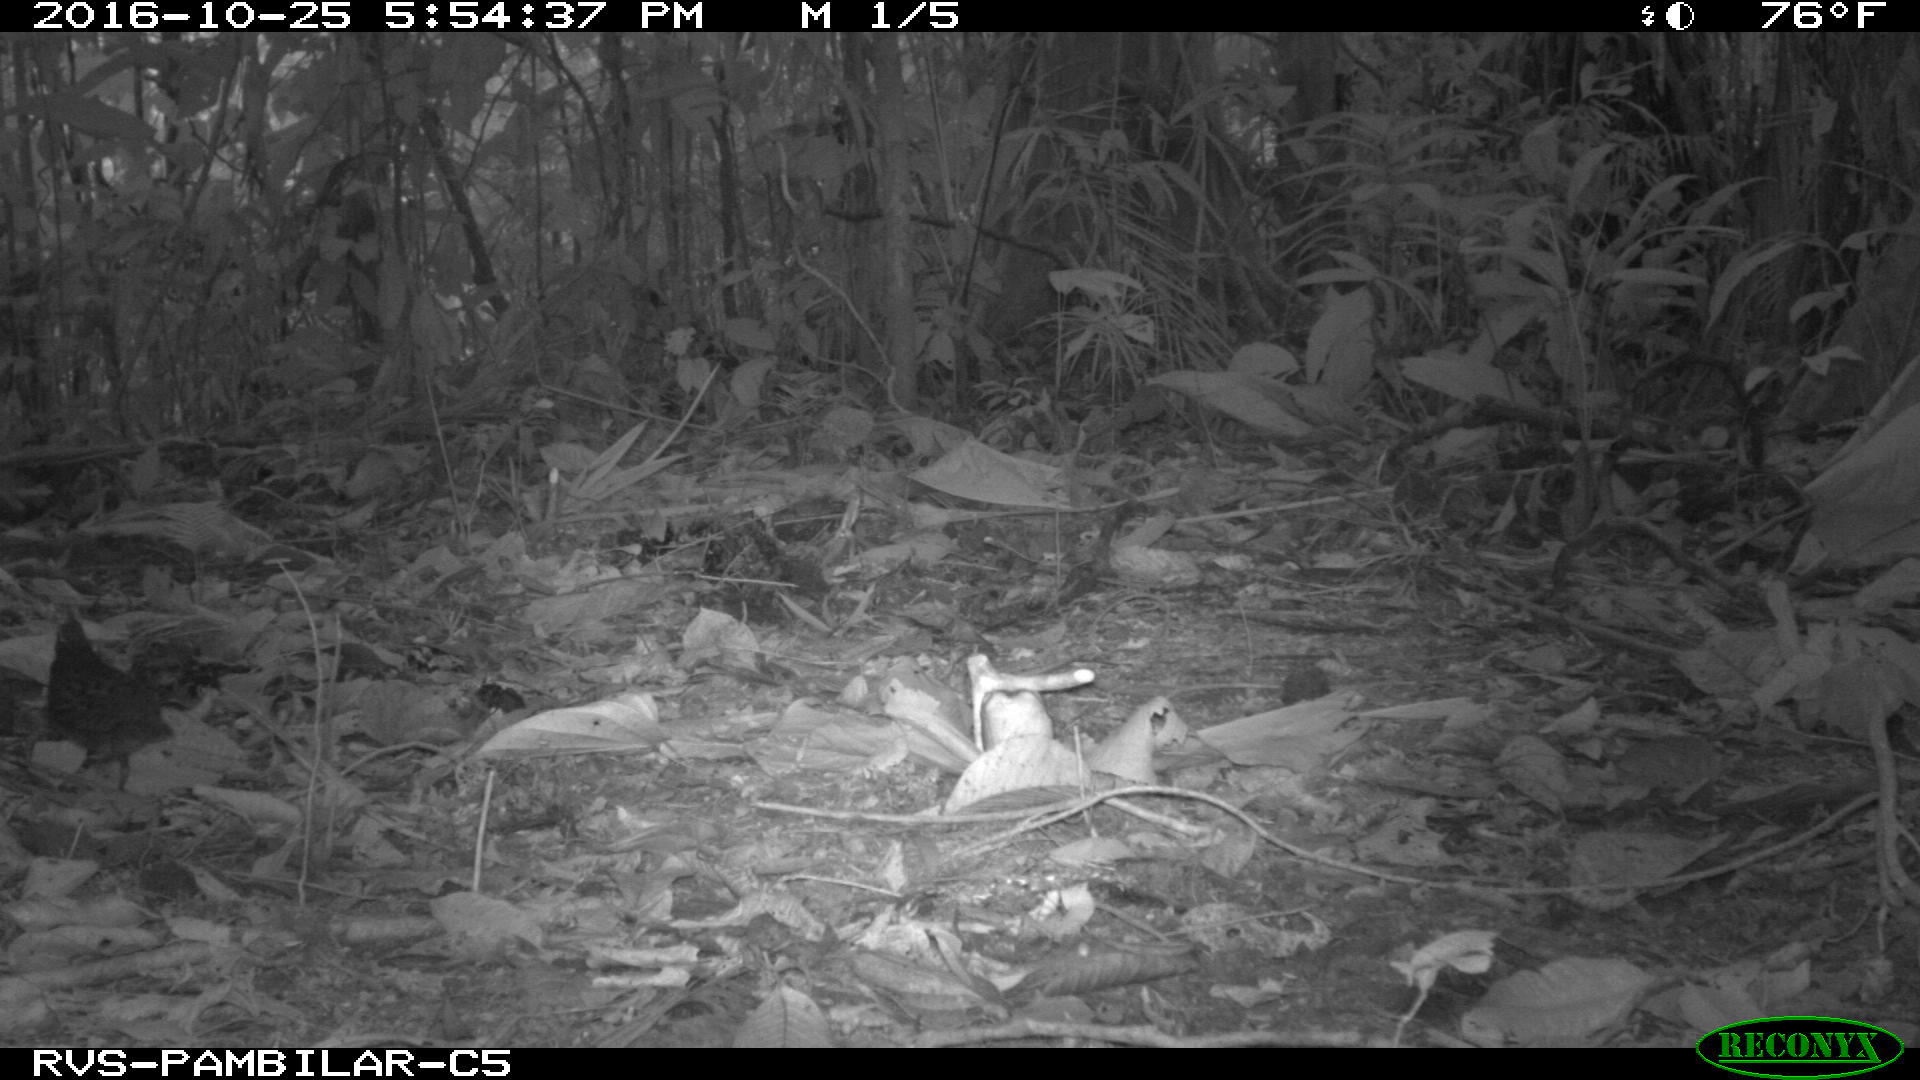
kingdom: Animalia
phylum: Chordata
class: Aves
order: Columbiformes
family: Columbidae
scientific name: Columbidae
